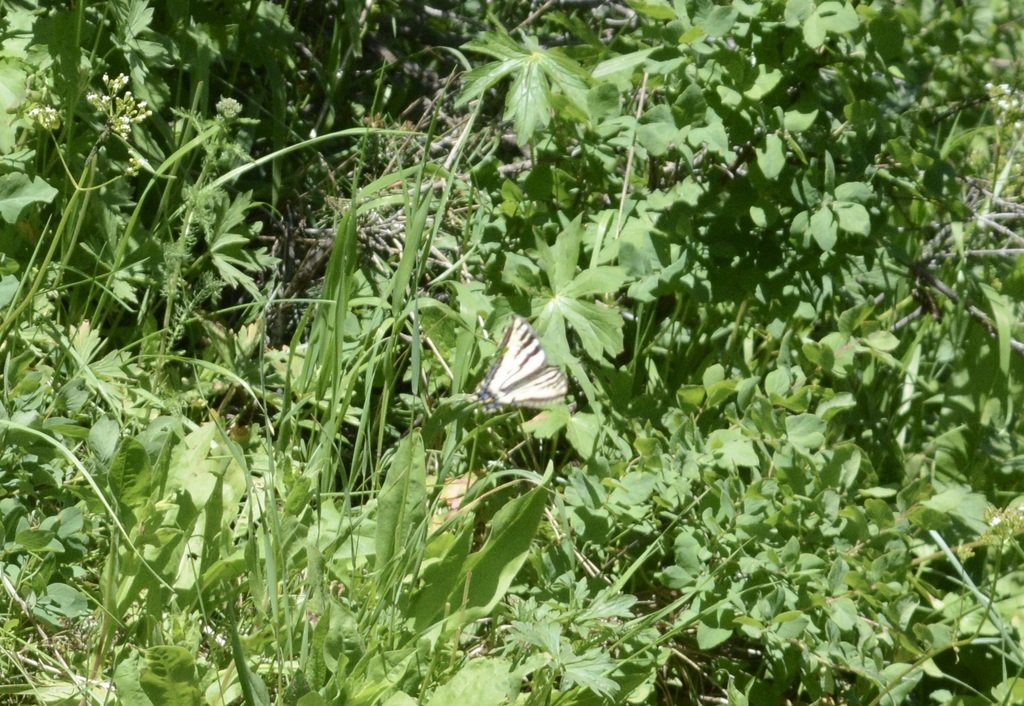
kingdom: Animalia
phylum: Arthropoda
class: Insecta
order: Lepidoptera
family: Papilionidae
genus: Pterourus
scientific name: Pterourus eurymedon
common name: Pale Swallowtail
